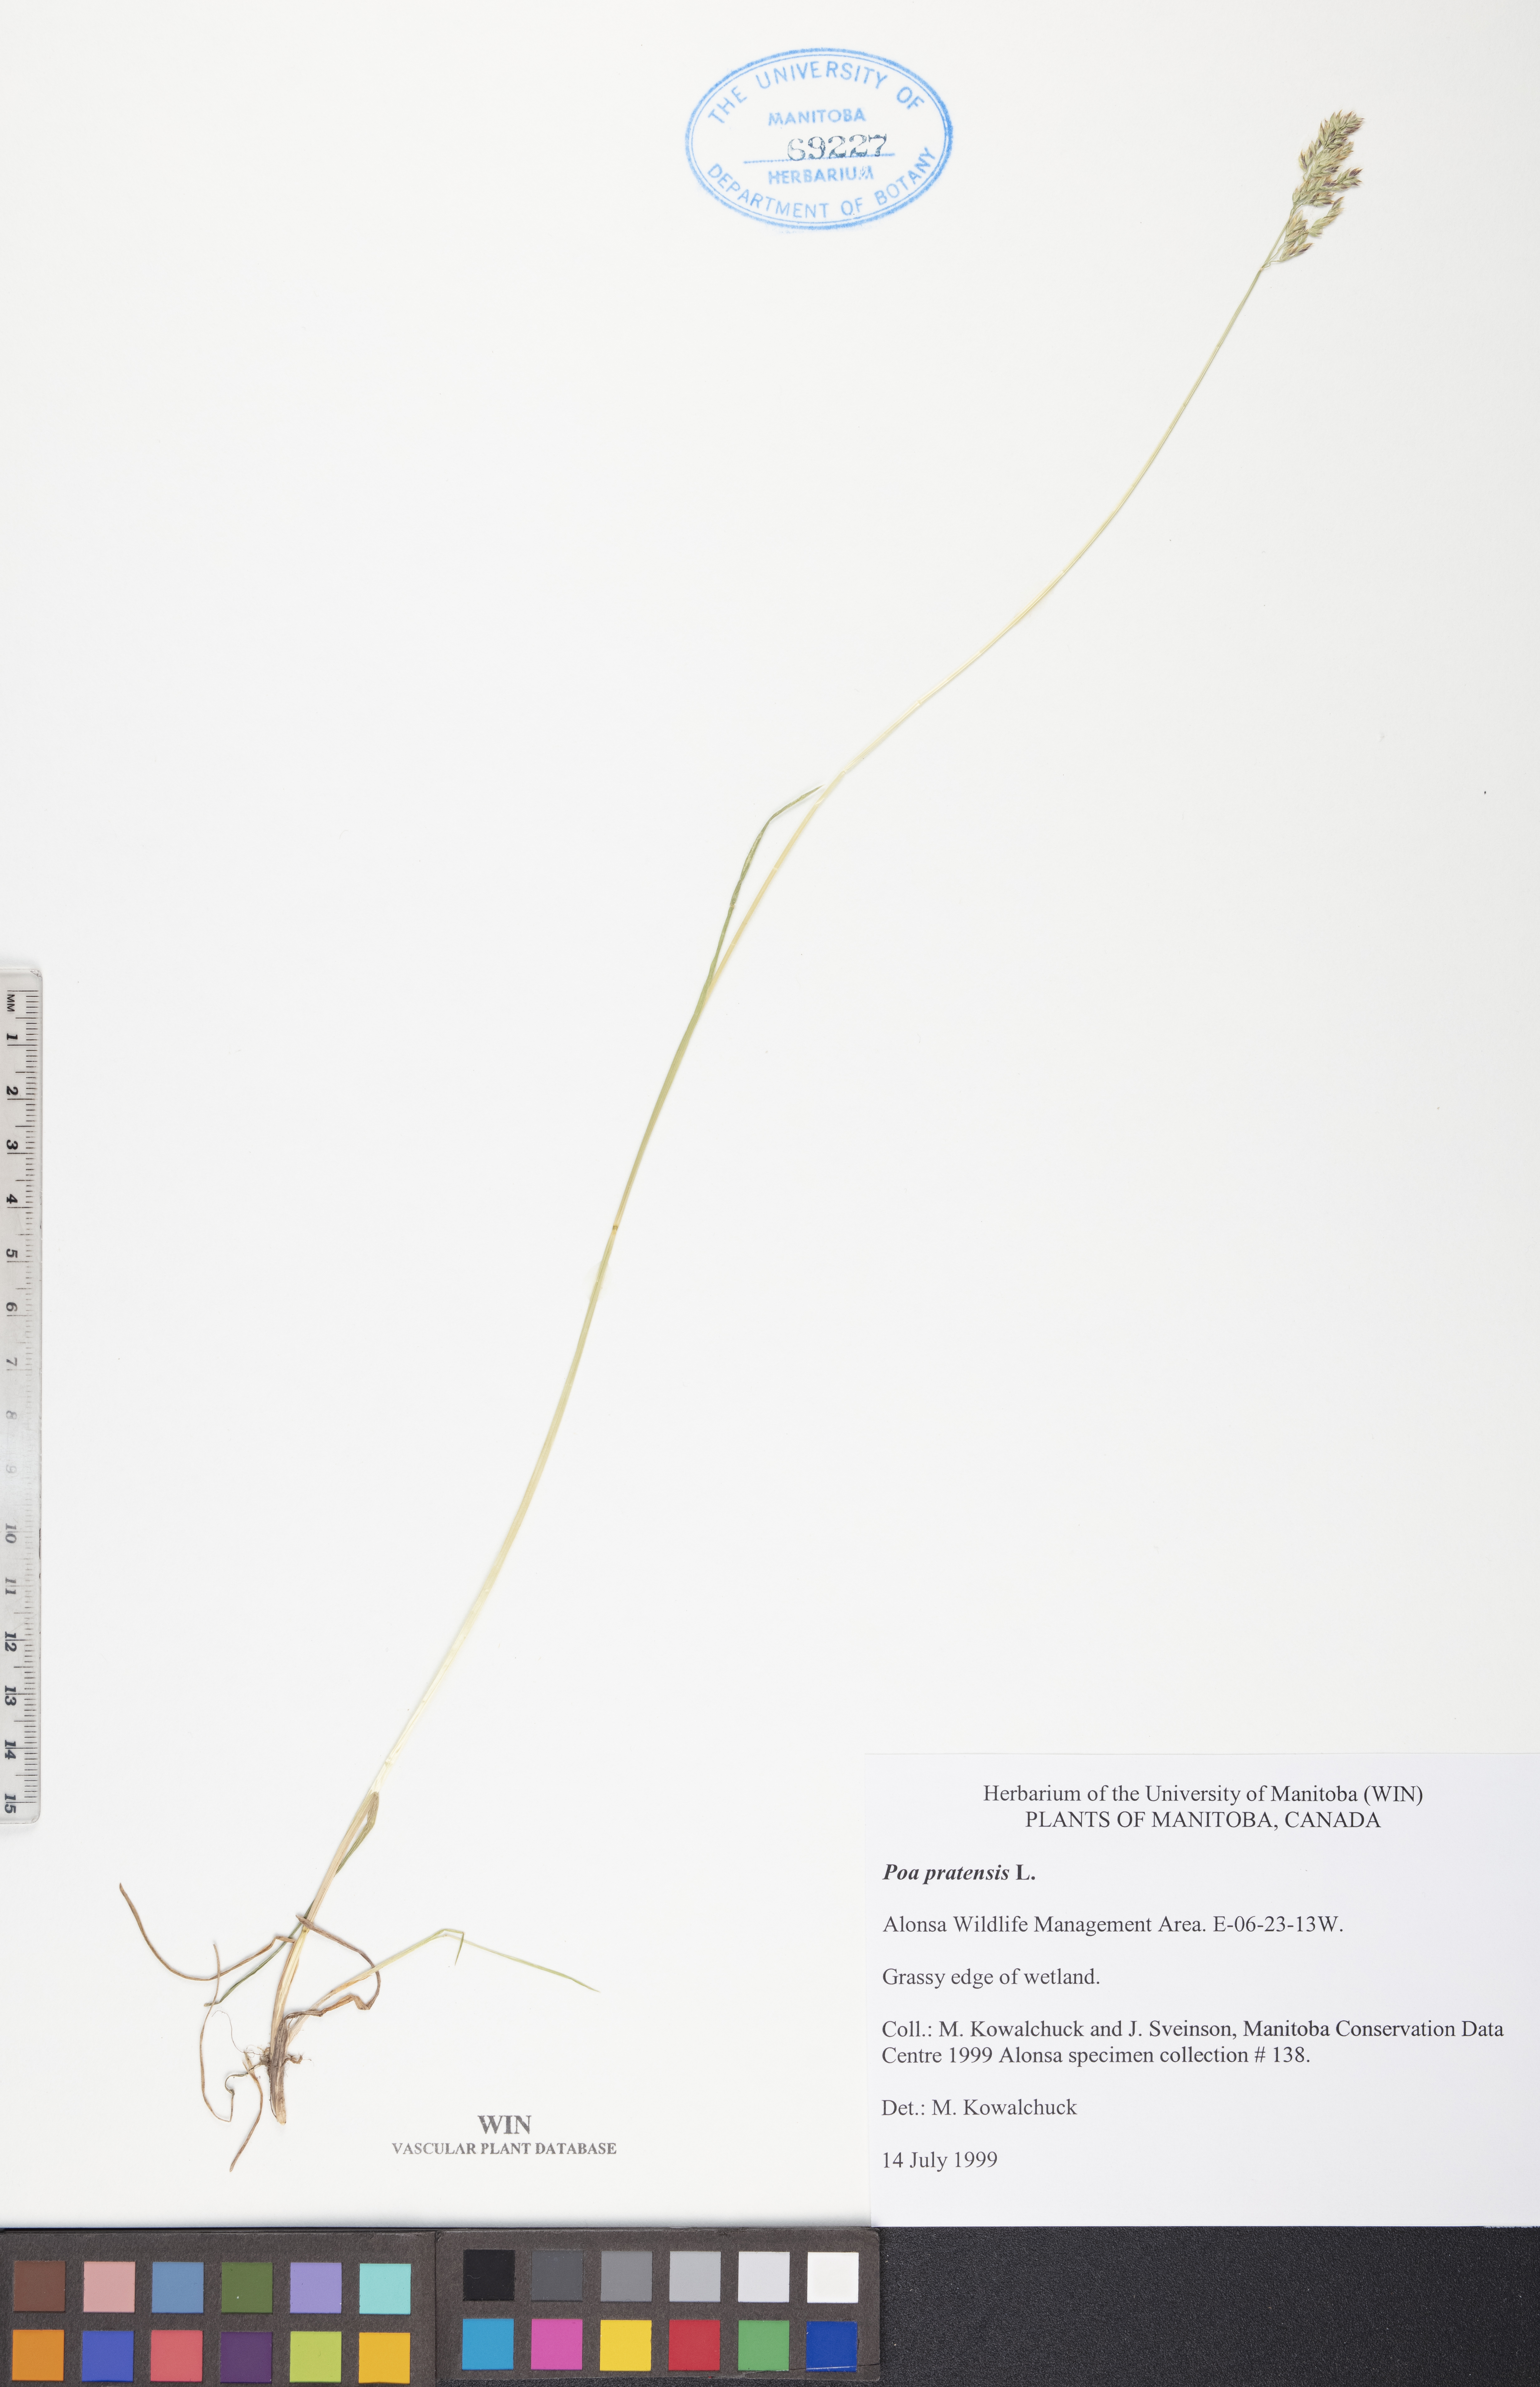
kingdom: Plantae
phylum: Tracheophyta
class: Liliopsida
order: Poales
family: Poaceae
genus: Poa
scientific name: Poa pratensis
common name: Kentucky bluegrass
